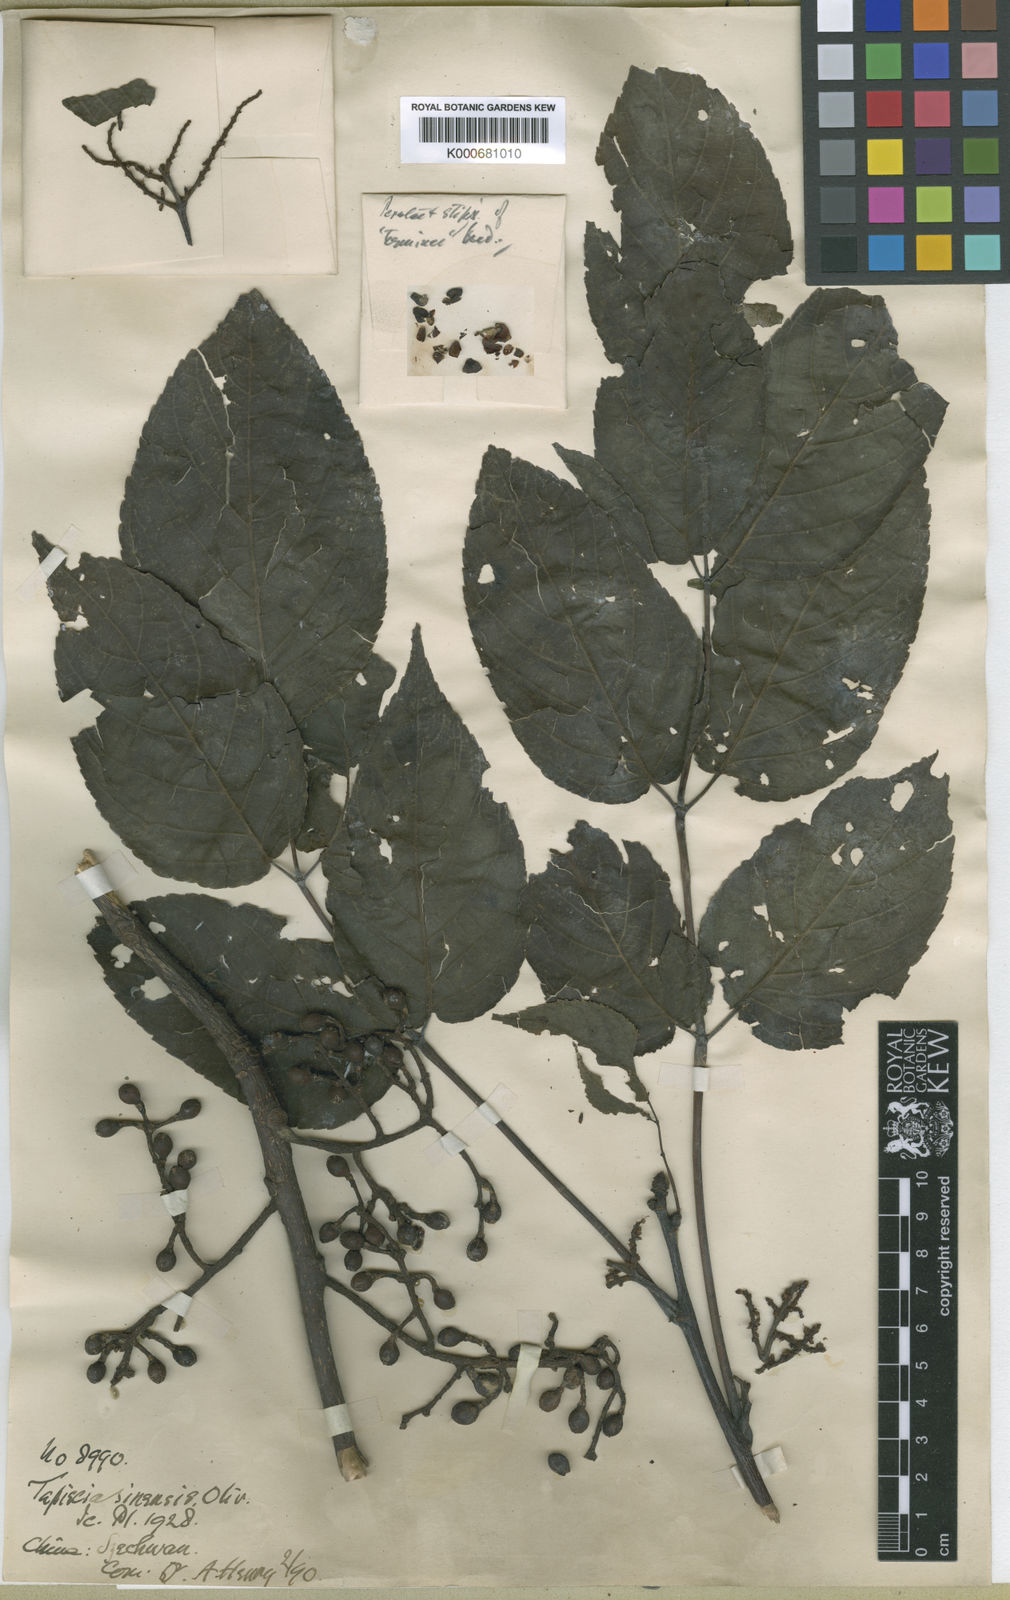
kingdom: Plantae
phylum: Tracheophyta
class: Magnoliopsida
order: Huerteales
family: Tapisciaceae
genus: Tapiscia
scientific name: Tapiscia sinensis
